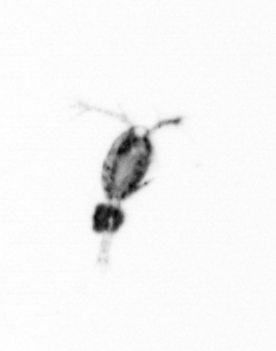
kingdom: Animalia
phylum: Arthropoda
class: Copepoda
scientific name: Copepoda
